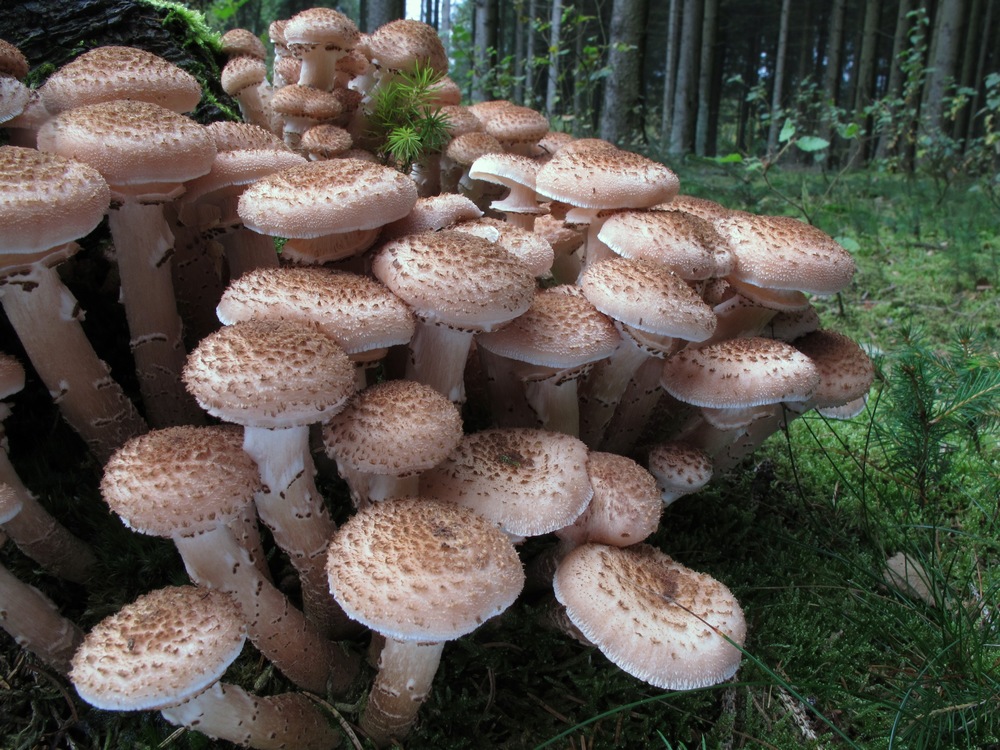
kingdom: Fungi
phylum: Basidiomycota
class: Agaricomycetes
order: Agaricales
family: Physalacriaceae
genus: Armillaria
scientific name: Armillaria ostoyae
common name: mørk honningsvamp
